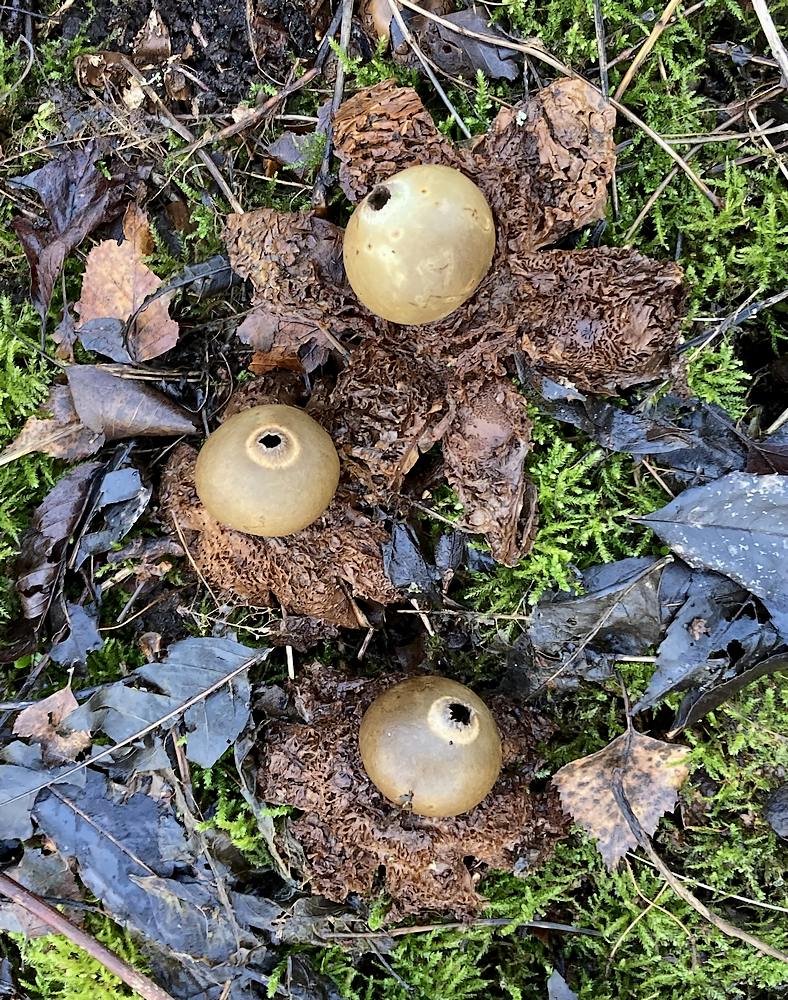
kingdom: Fungi
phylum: Basidiomycota
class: Agaricomycetes
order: Geastrales
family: Geastraceae
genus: Geastrum
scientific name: Geastrum michelianum
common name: kødet stjernebold
